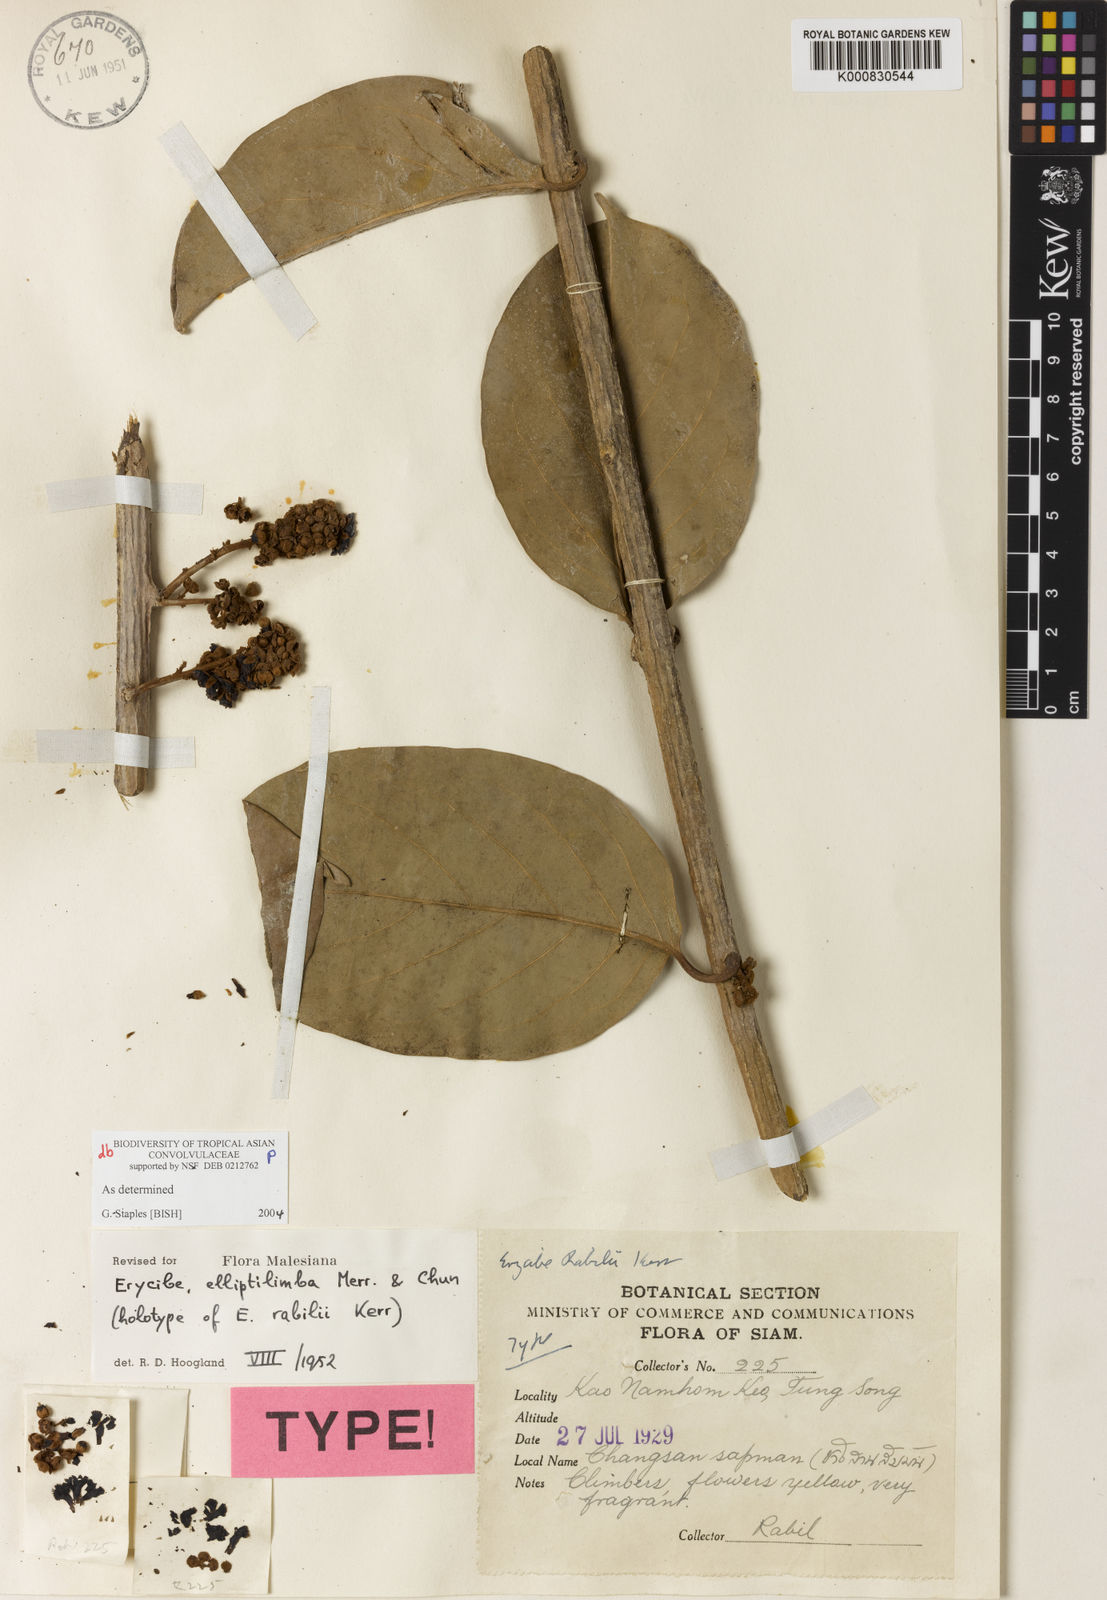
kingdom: Plantae
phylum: Tracheophyta
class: Magnoliopsida
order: Solanales
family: Convolvulaceae
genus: Erycibe
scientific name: Erycibe elliptilimba
